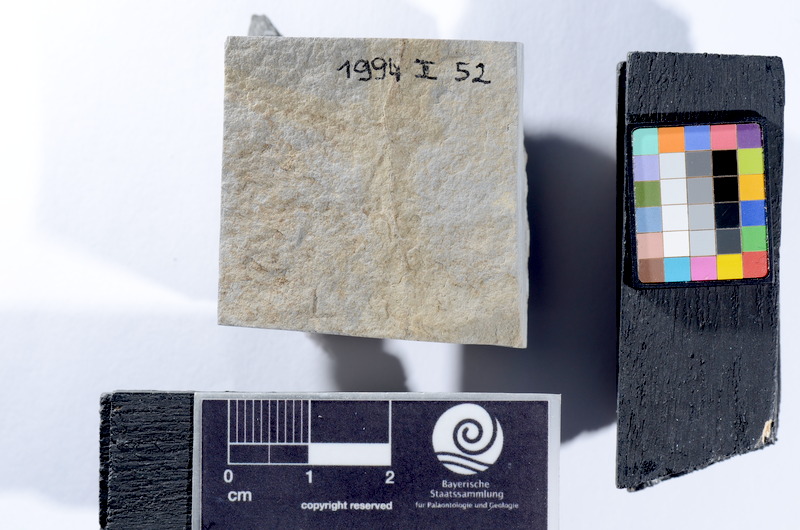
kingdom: Animalia
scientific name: Animalia
